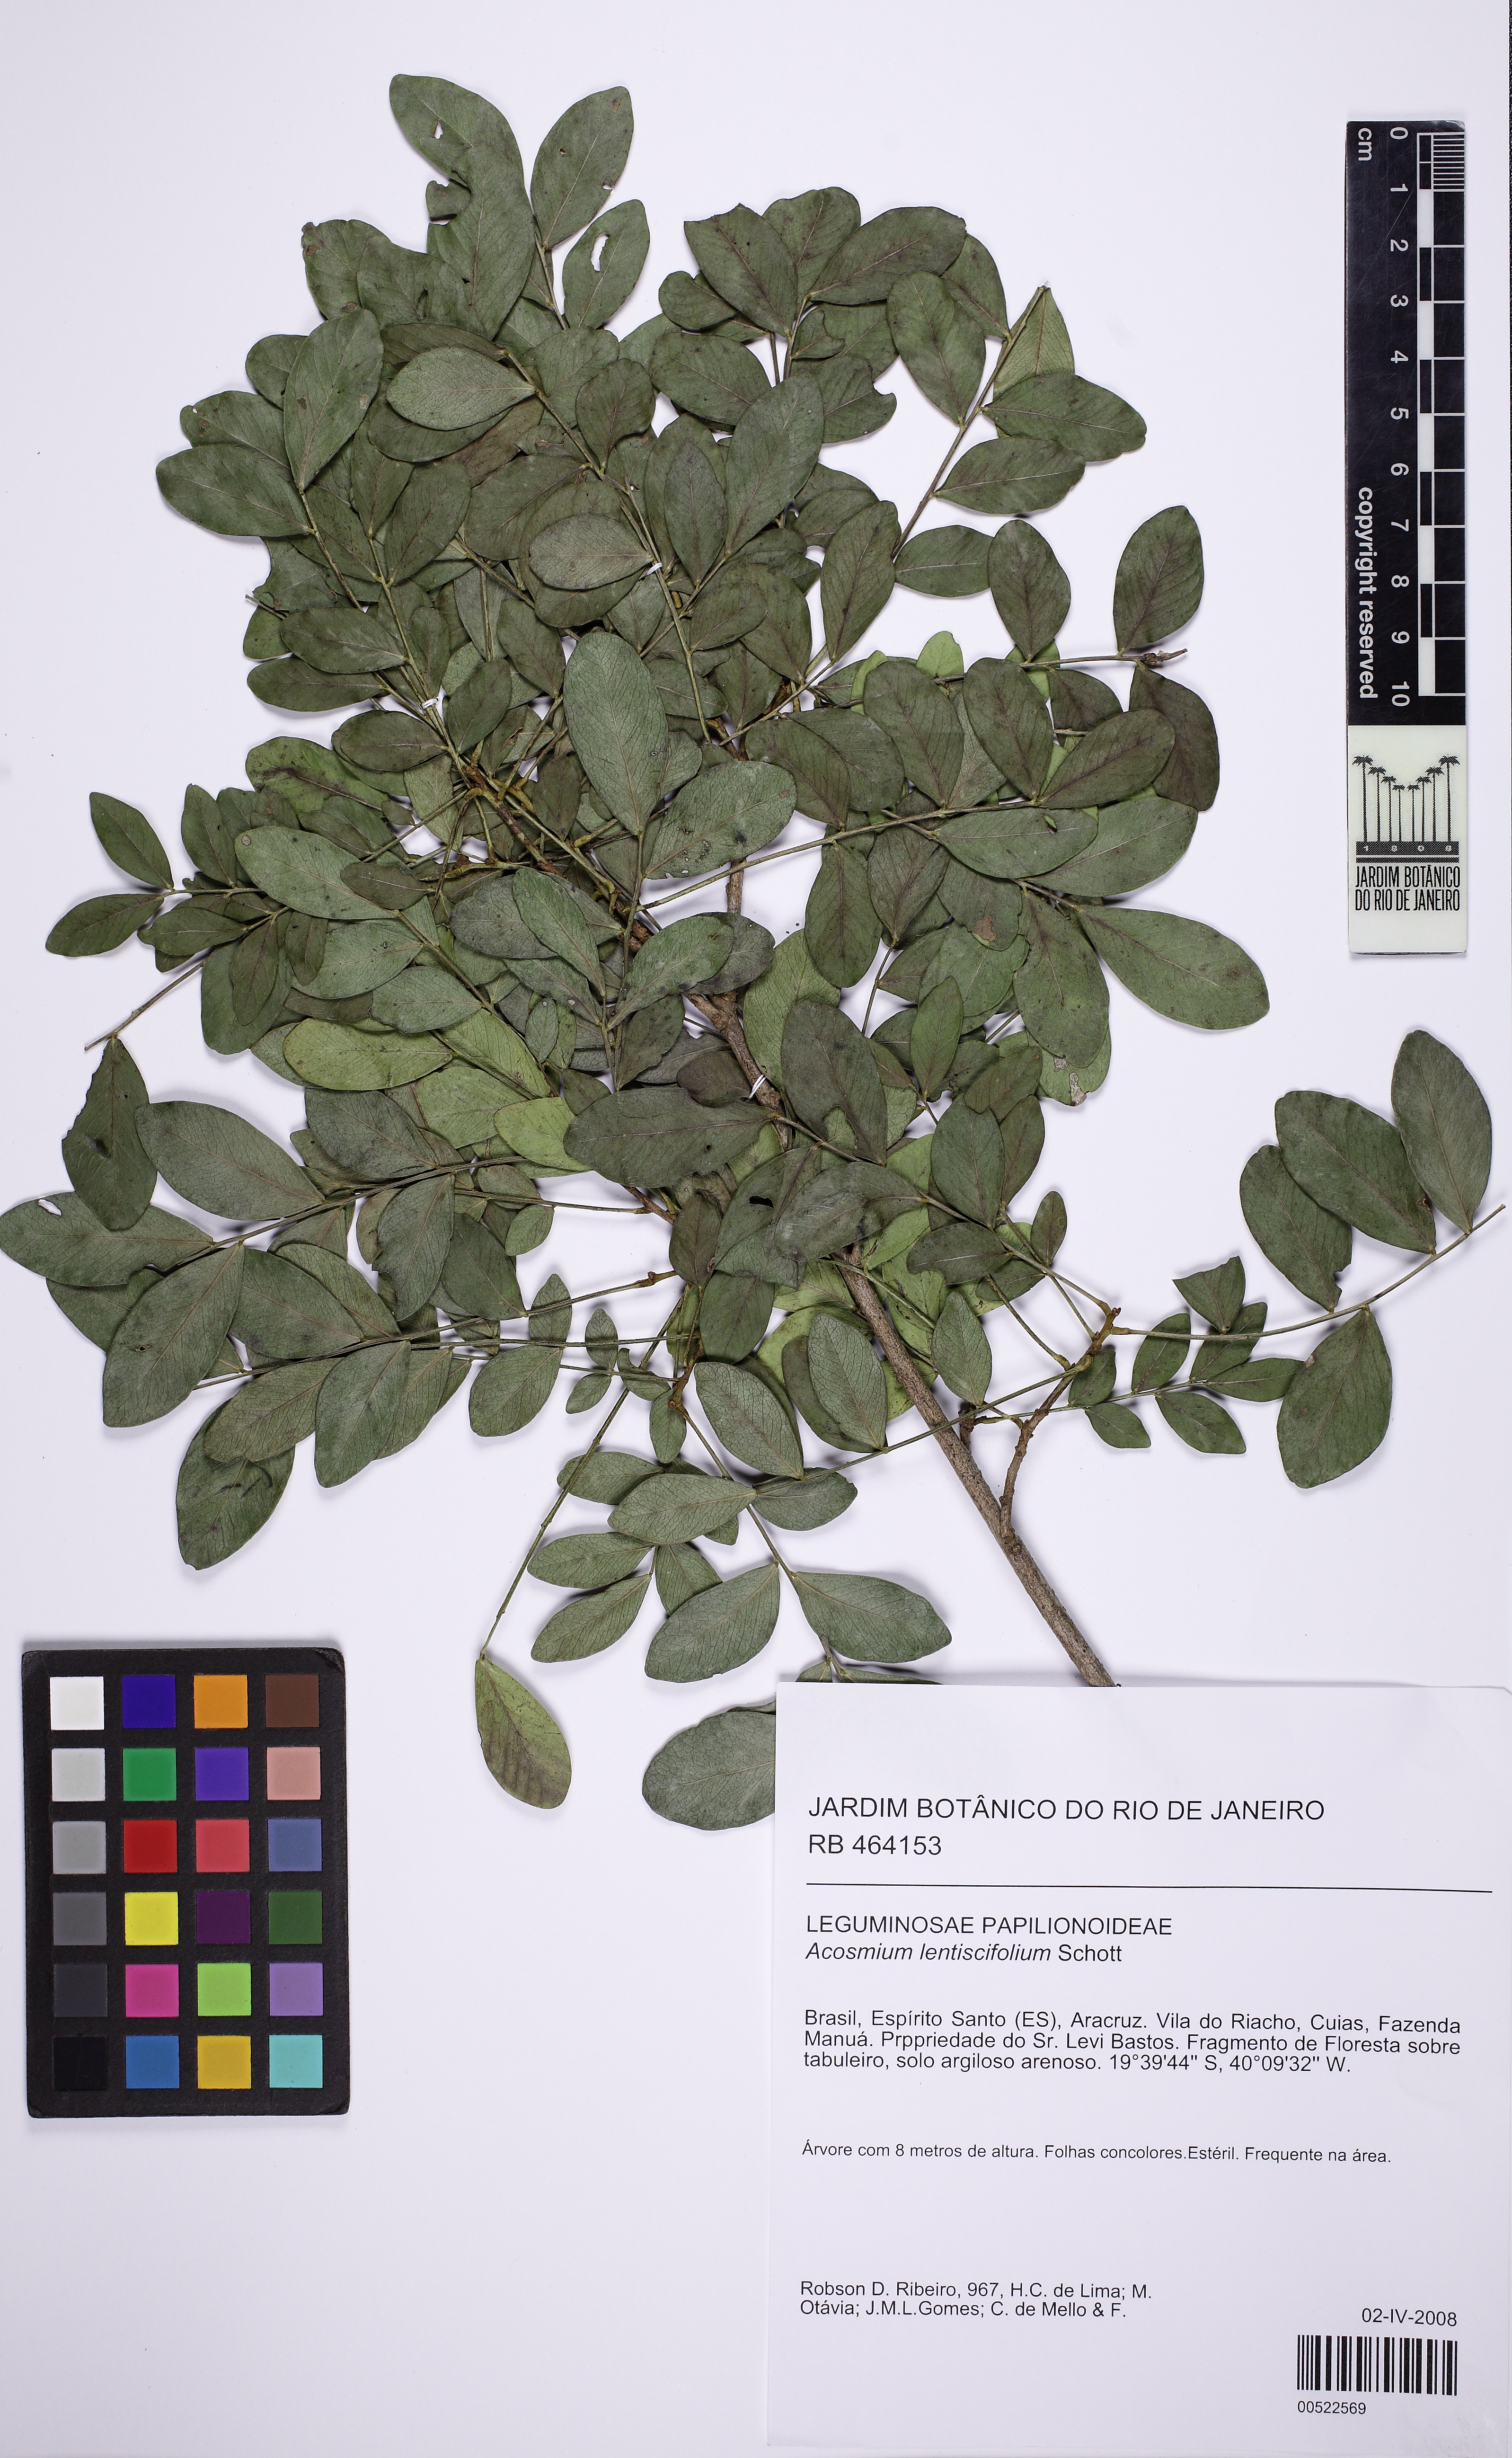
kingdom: Plantae
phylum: Tracheophyta
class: Magnoliopsida
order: Fabales
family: Fabaceae
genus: Acosmium
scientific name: Acosmium lentiscifolium
